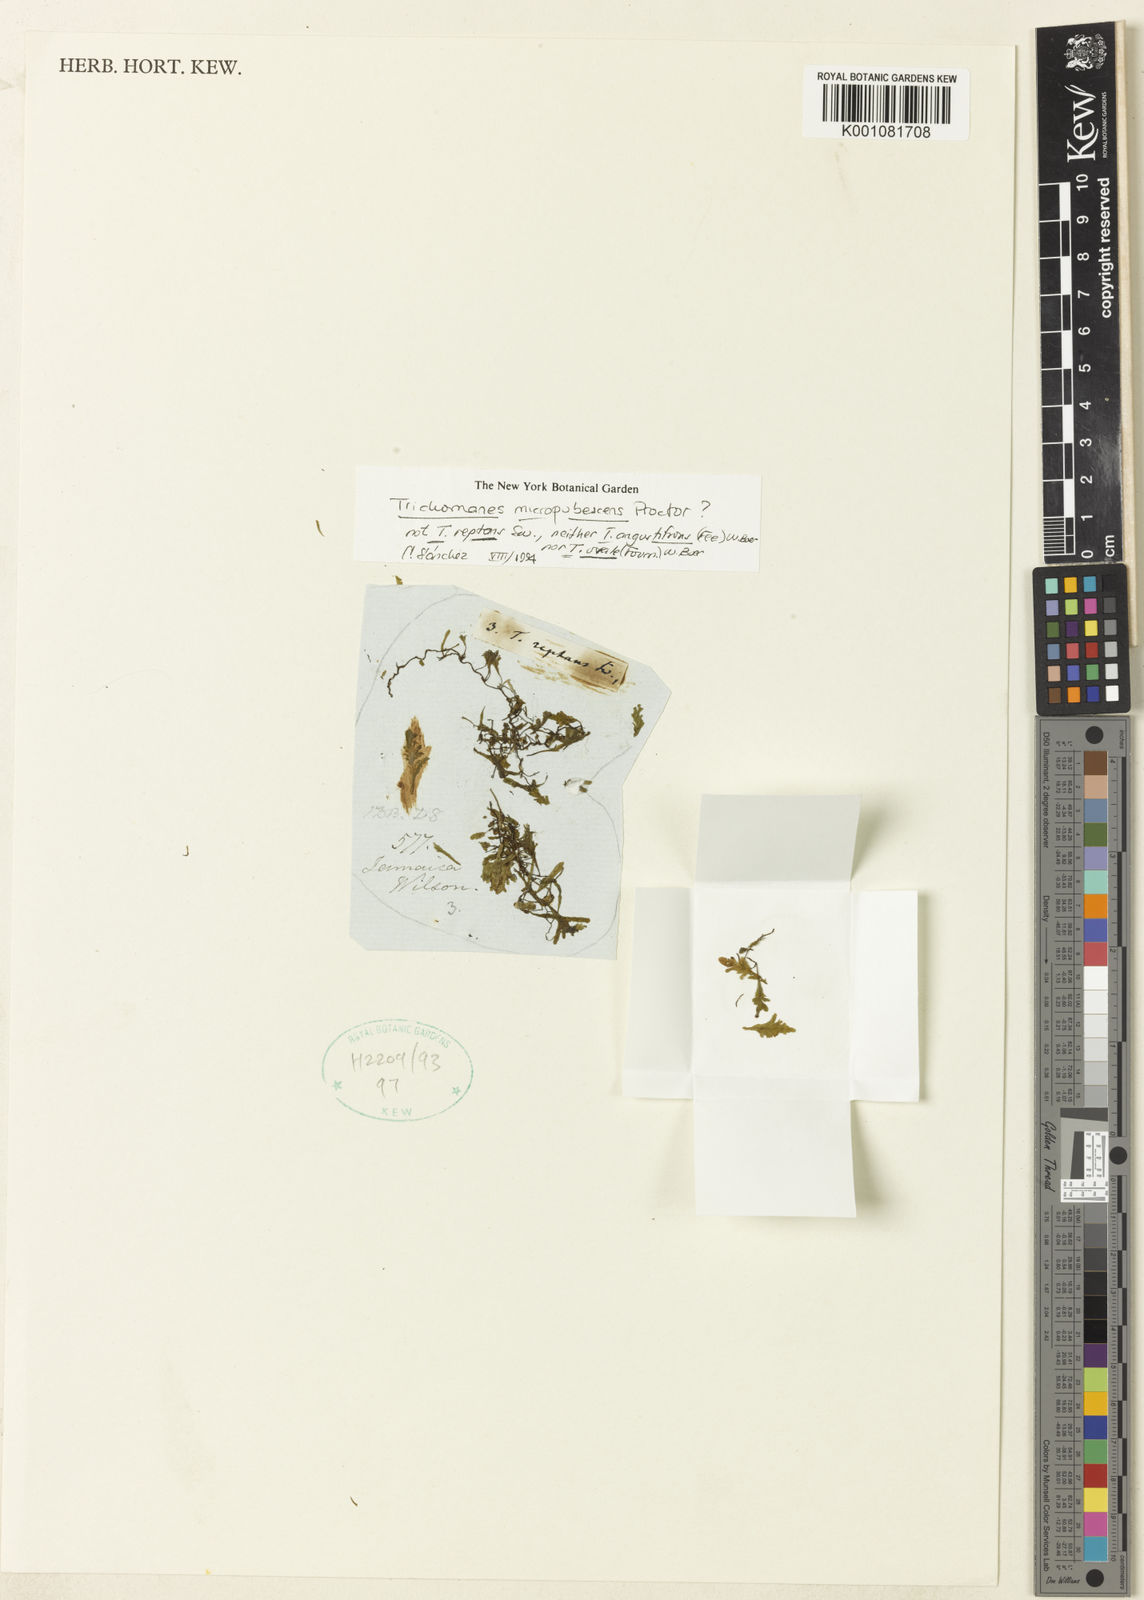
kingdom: Plantae
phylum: Tracheophyta
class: Polypodiopsida
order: Hymenophyllales
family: Hymenophyllaceae
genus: Didymoglossum
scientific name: Didymoglossum micropubescens
